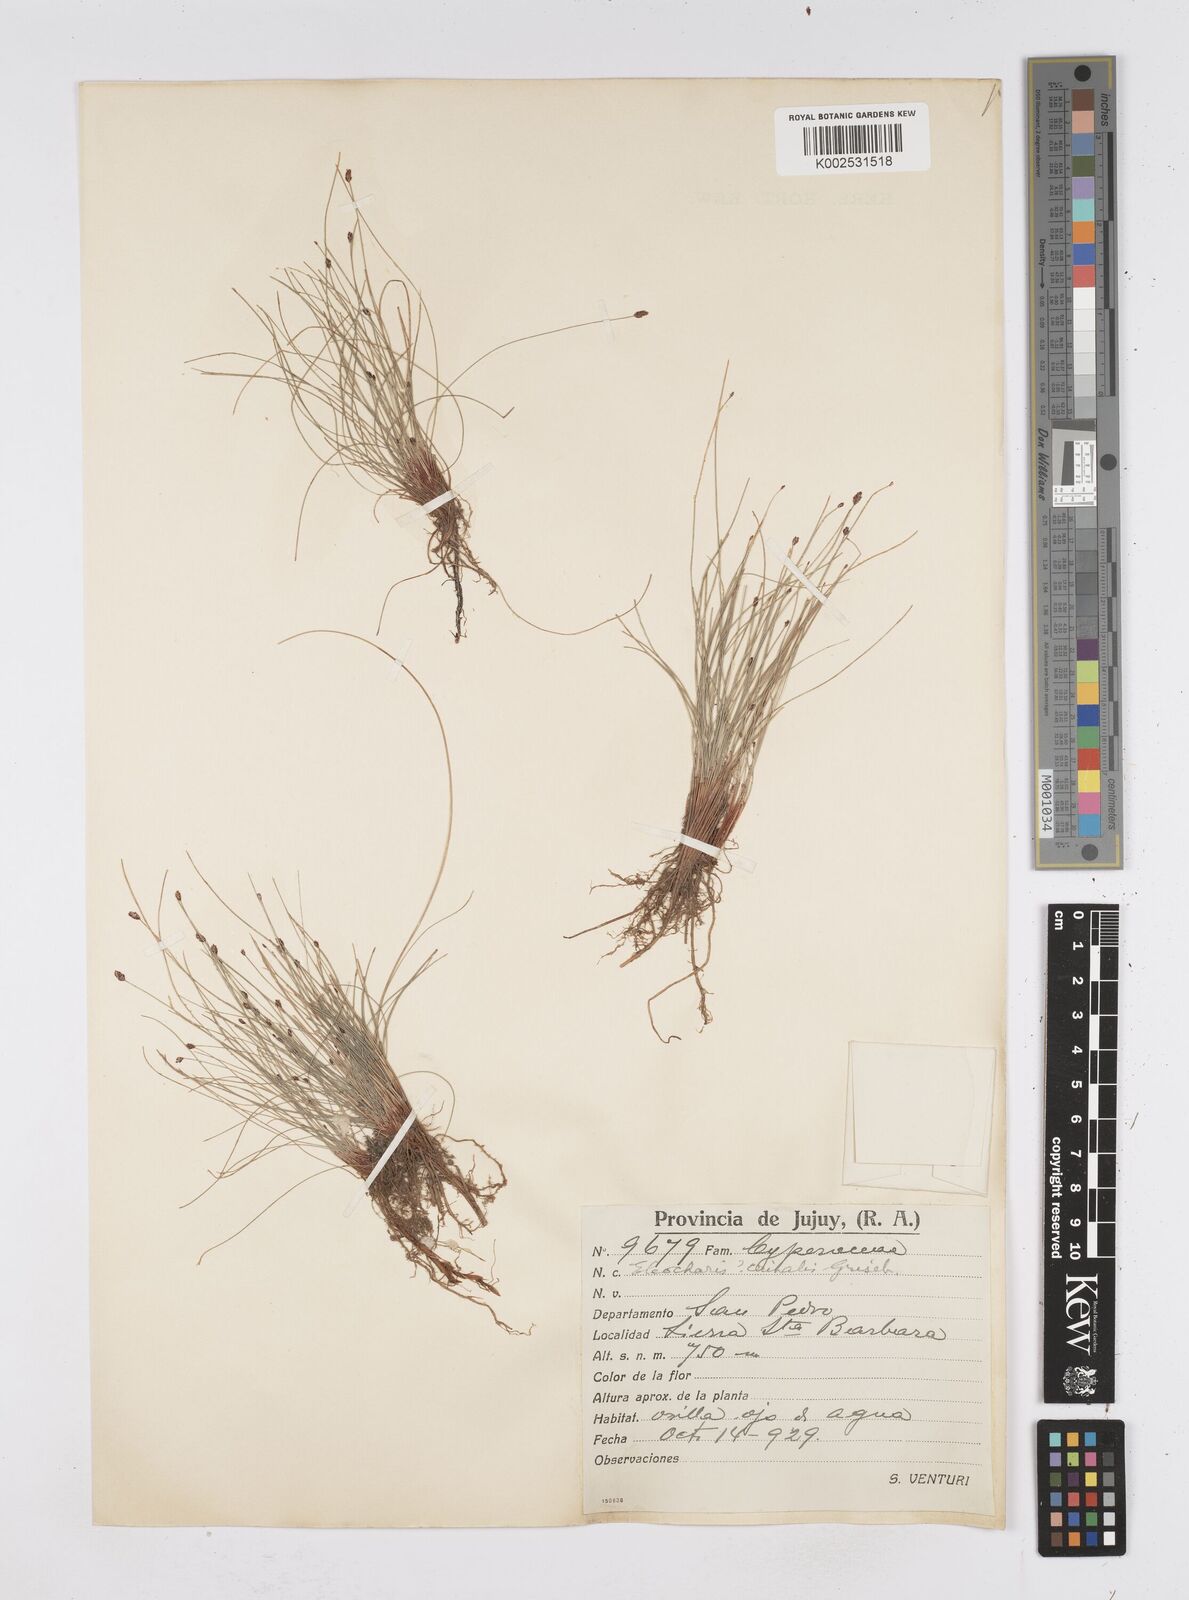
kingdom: Plantae
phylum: Tracheophyta
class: Liliopsida
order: Poales
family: Cyperaceae
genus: Eleocharis
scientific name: Eleocharis crinalis
